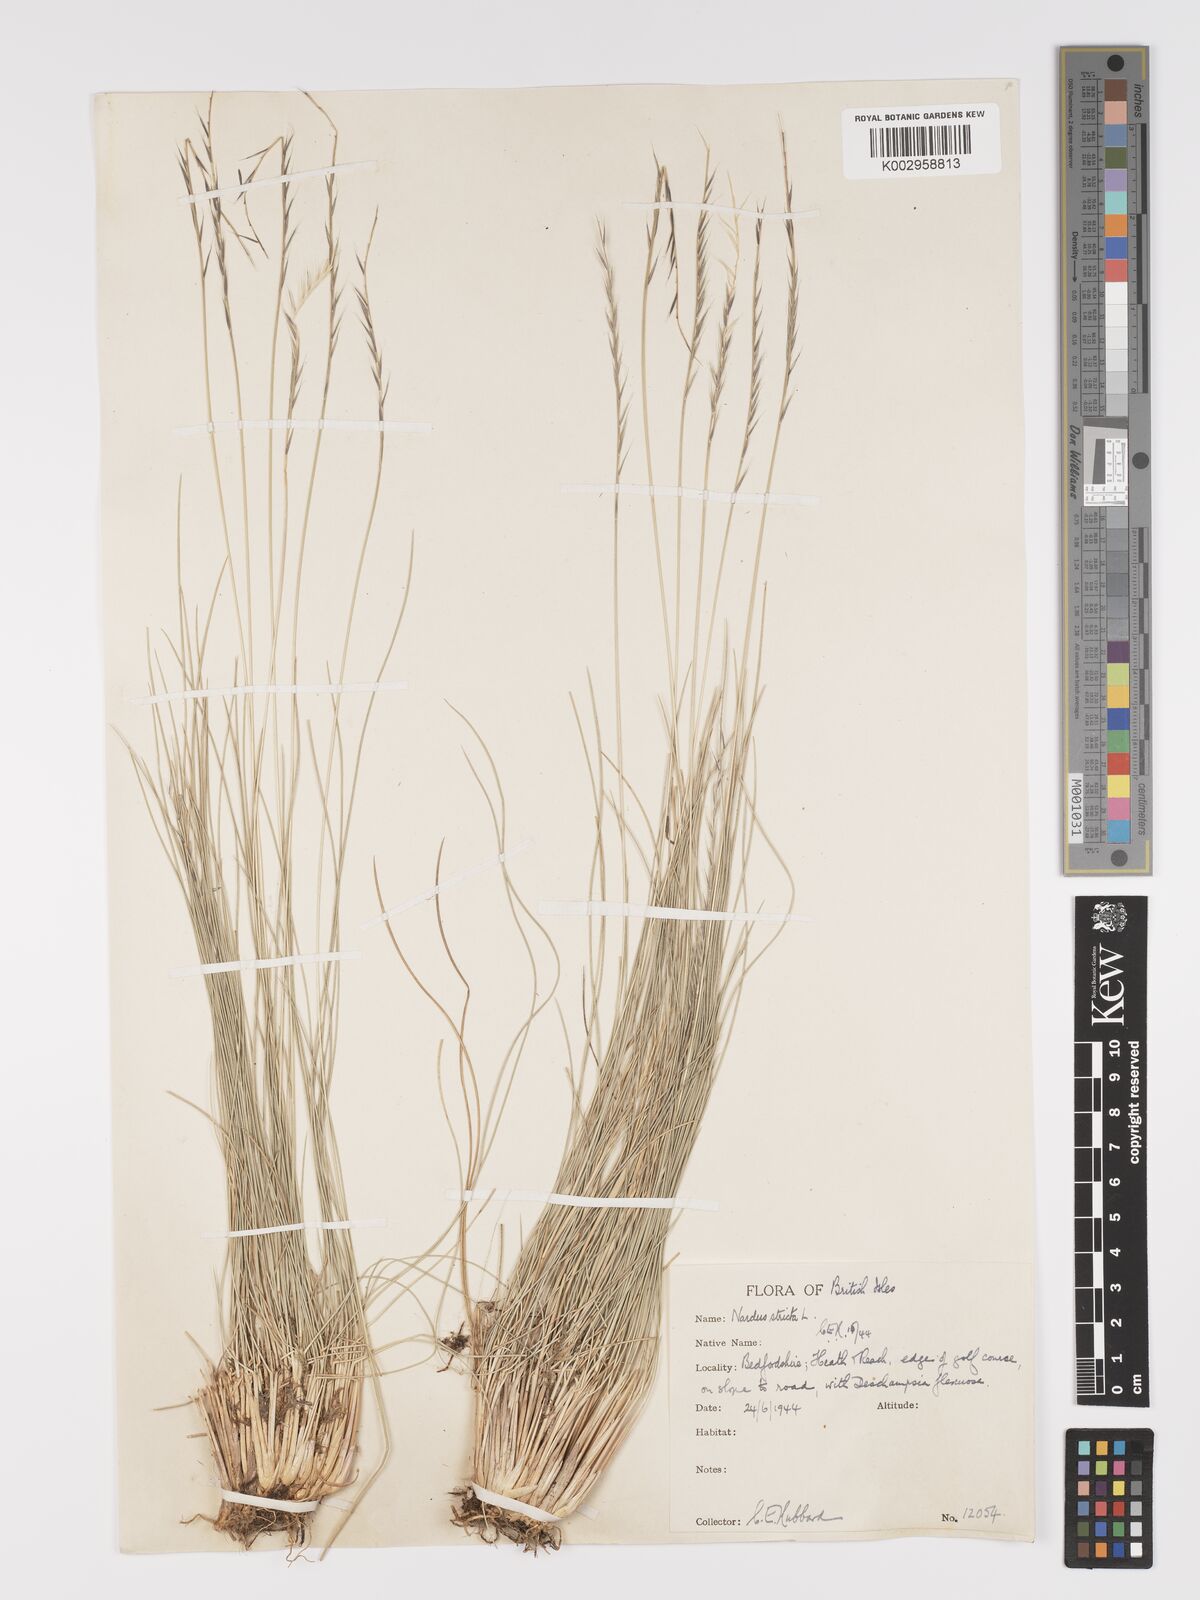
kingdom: Plantae
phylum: Tracheophyta
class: Liliopsida
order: Poales
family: Poaceae
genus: Nardus
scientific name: Nardus stricta
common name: Mat-grass
